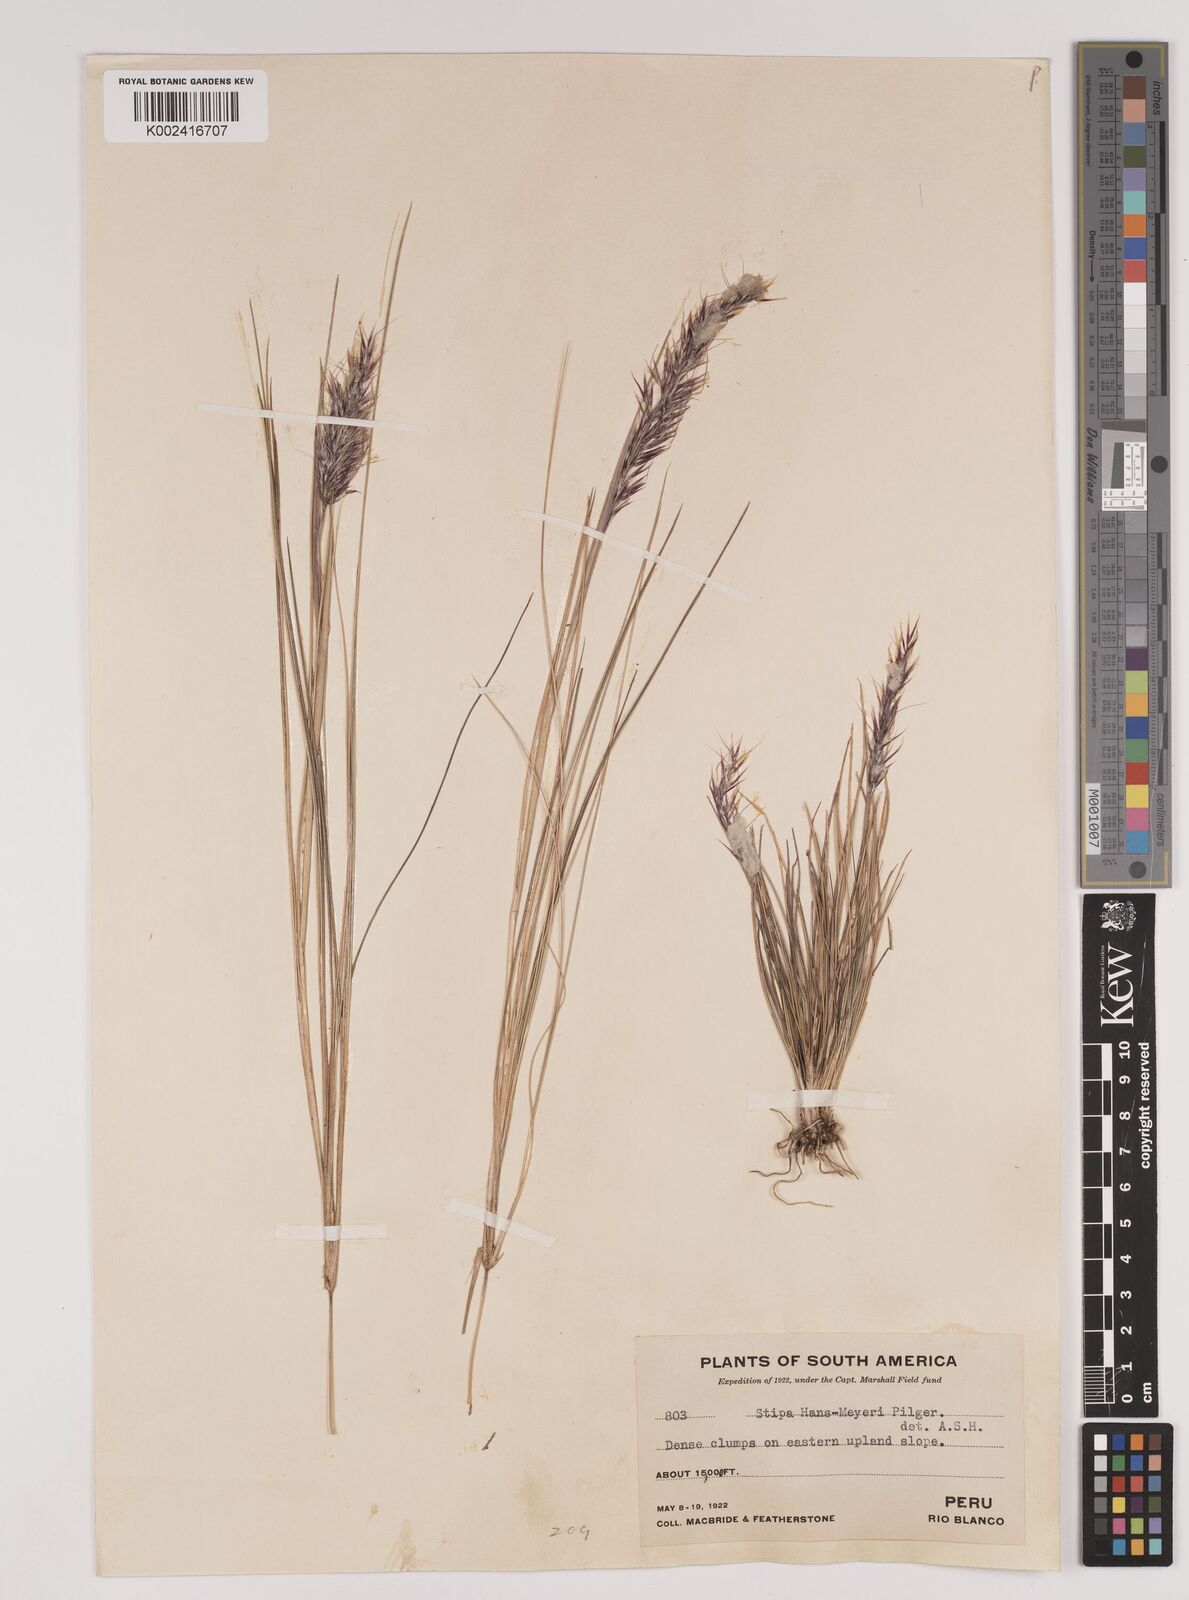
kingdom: Plantae
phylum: Tracheophyta
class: Liliopsida
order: Poales
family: Poaceae
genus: Stipa
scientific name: Stipa hans-meyeri
